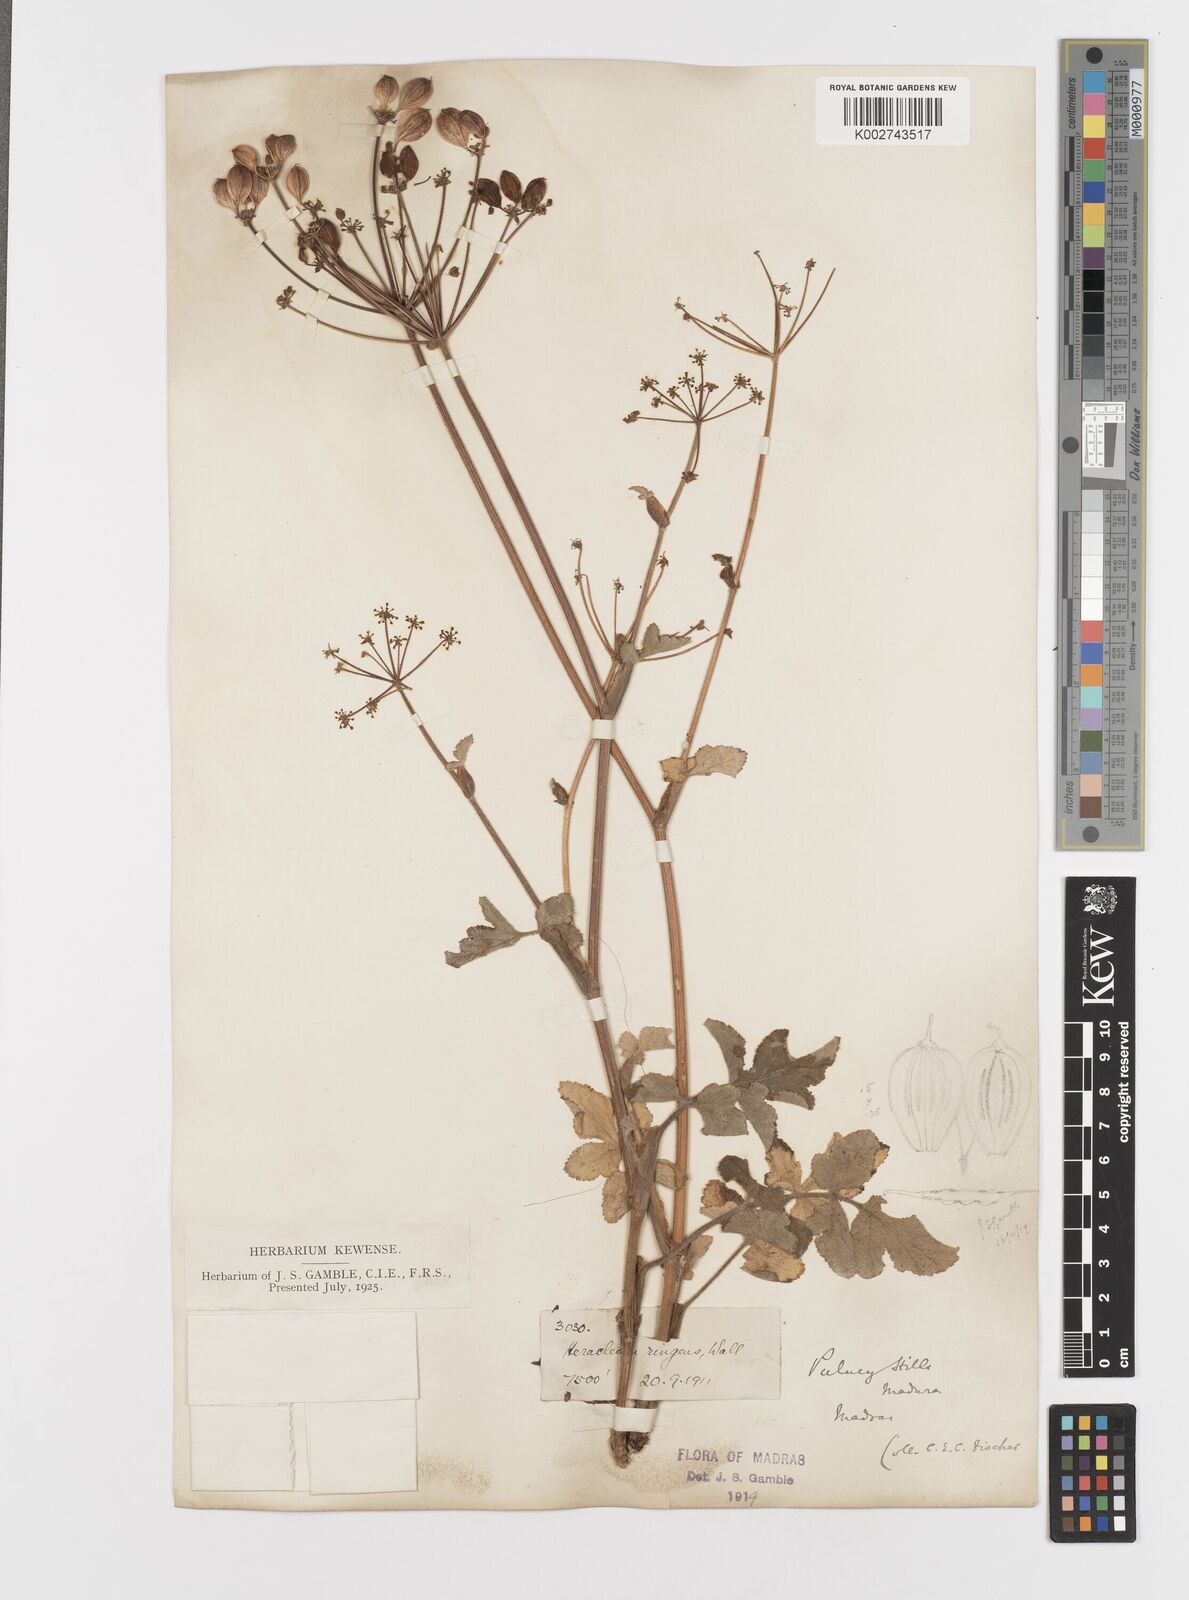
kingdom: Plantae
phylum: Tracheophyta
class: Magnoliopsida
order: Apiales
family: Apiaceae
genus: Tetrataenium
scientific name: Tetrataenium rigens
